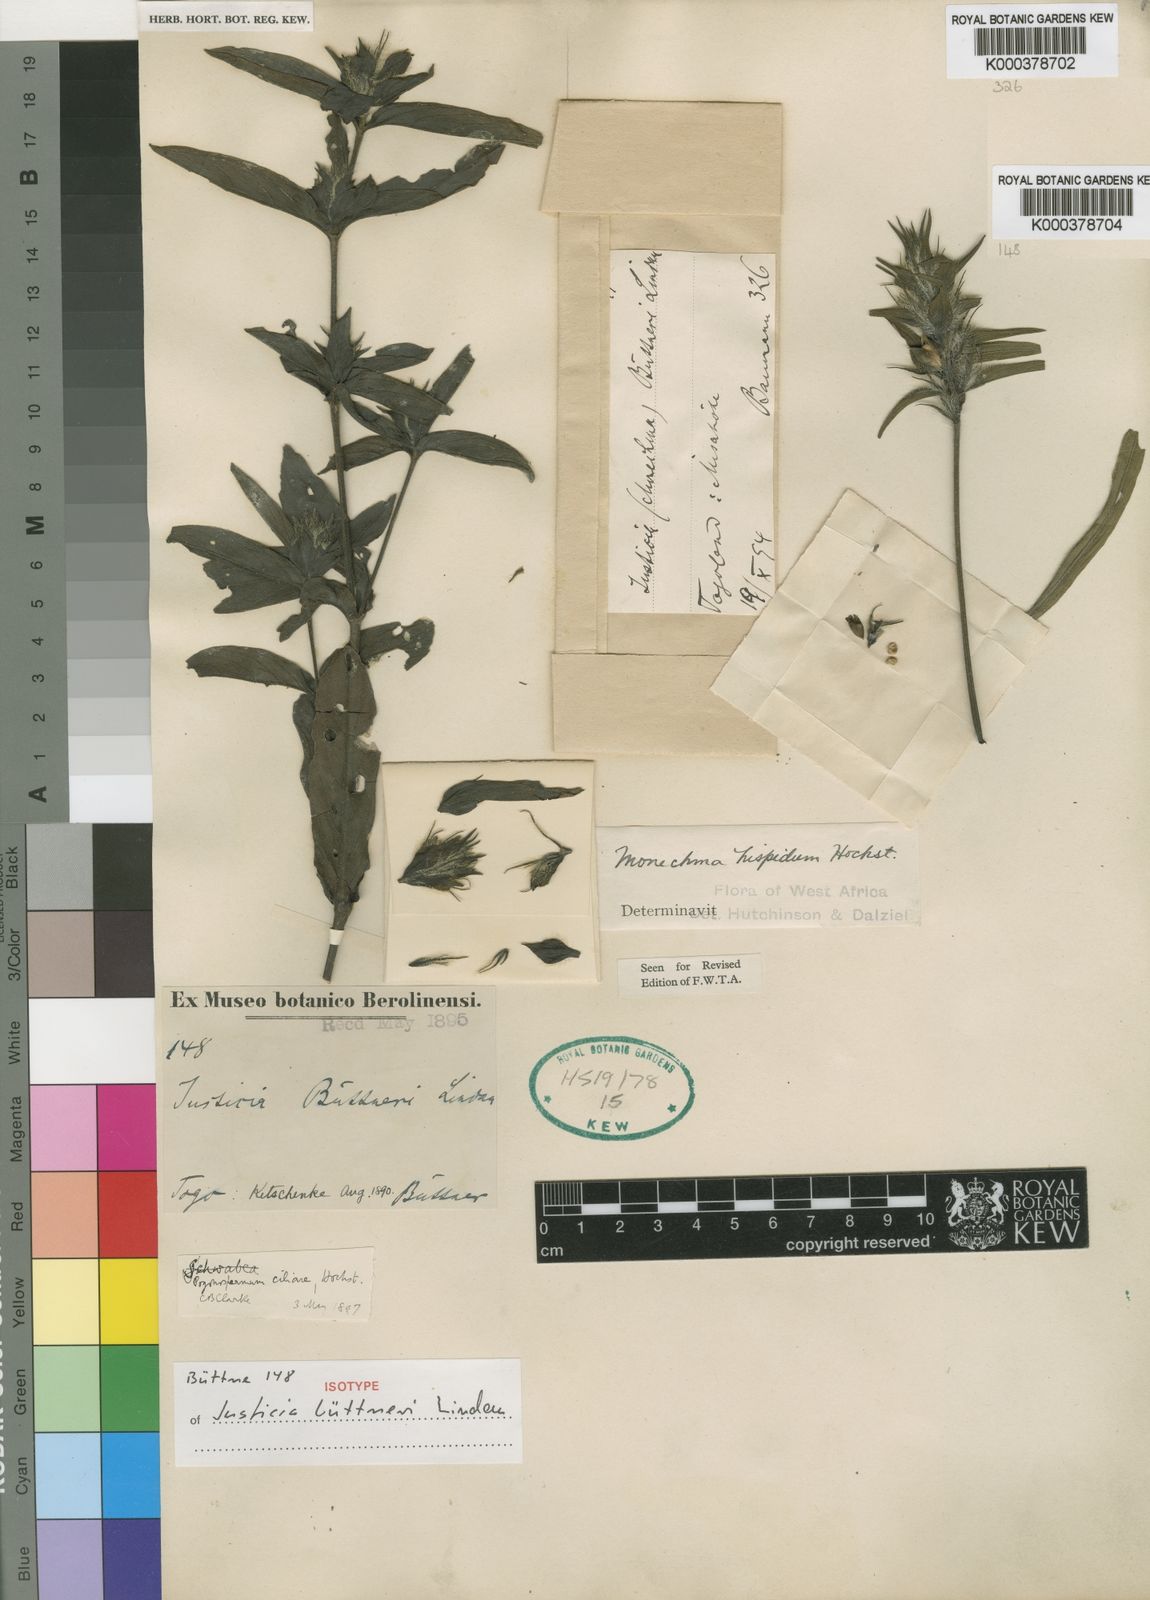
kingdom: Plantae
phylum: Tracheophyta
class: Magnoliopsida
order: Lamiales
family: Acanthaceae
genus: Pogonospermum
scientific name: Pogonospermum ciliare
